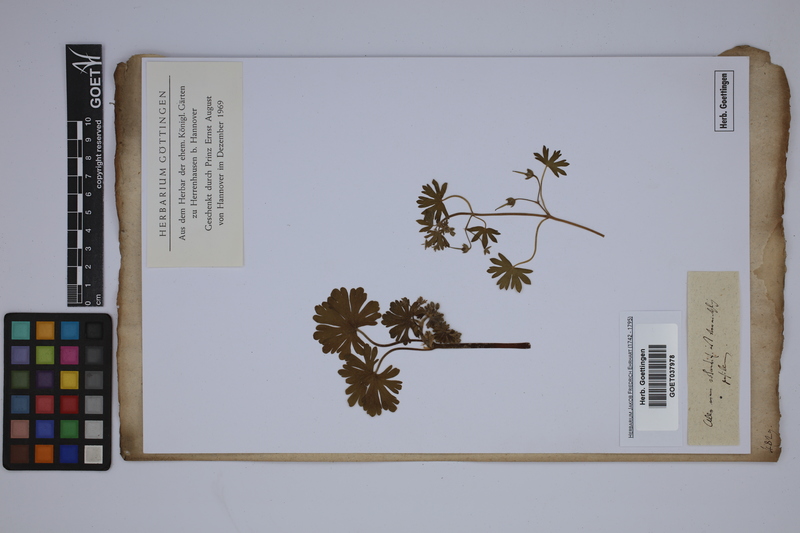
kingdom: Plantae
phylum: Tracheophyta
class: Magnoliopsida
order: Geraniales
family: Geraniaceae
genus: Geranium
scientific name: Geranium pusillum
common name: Small geranium
